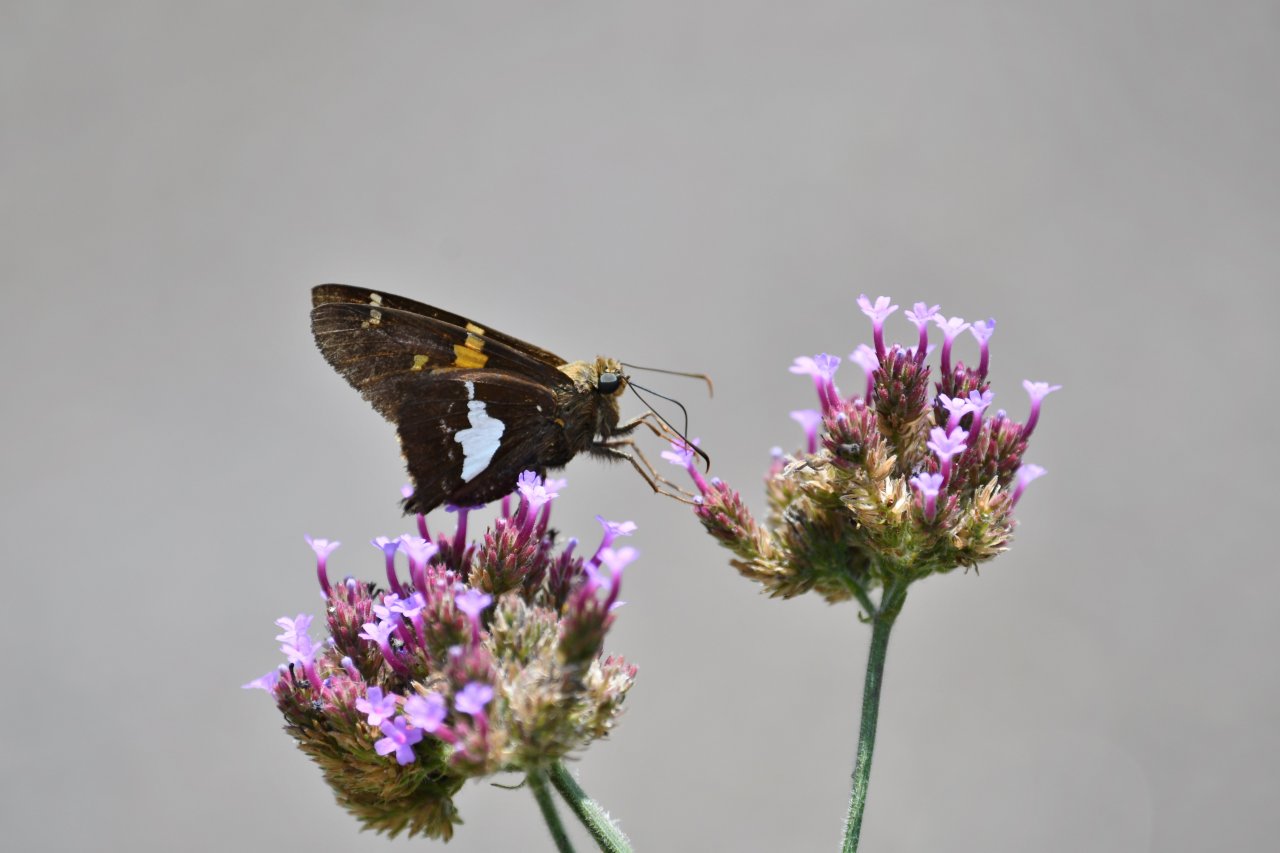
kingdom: Animalia
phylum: Arthropoda
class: Insecta
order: Lepidoptera
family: Hesperiidae
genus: Epargyreus
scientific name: Epargyreus clarus
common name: Silver-spotted Skipper
